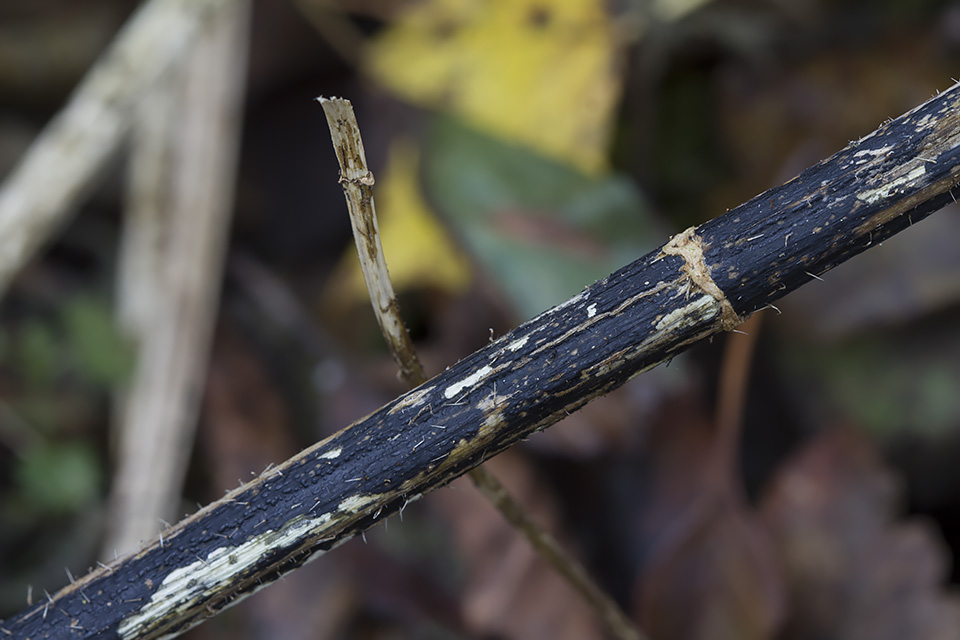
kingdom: Fungi
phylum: Ascomycota
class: Sordariomycetes
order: Diaporthales
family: Diaporthaceae
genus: Diaporthopsis
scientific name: Diaporthopsis urticae
